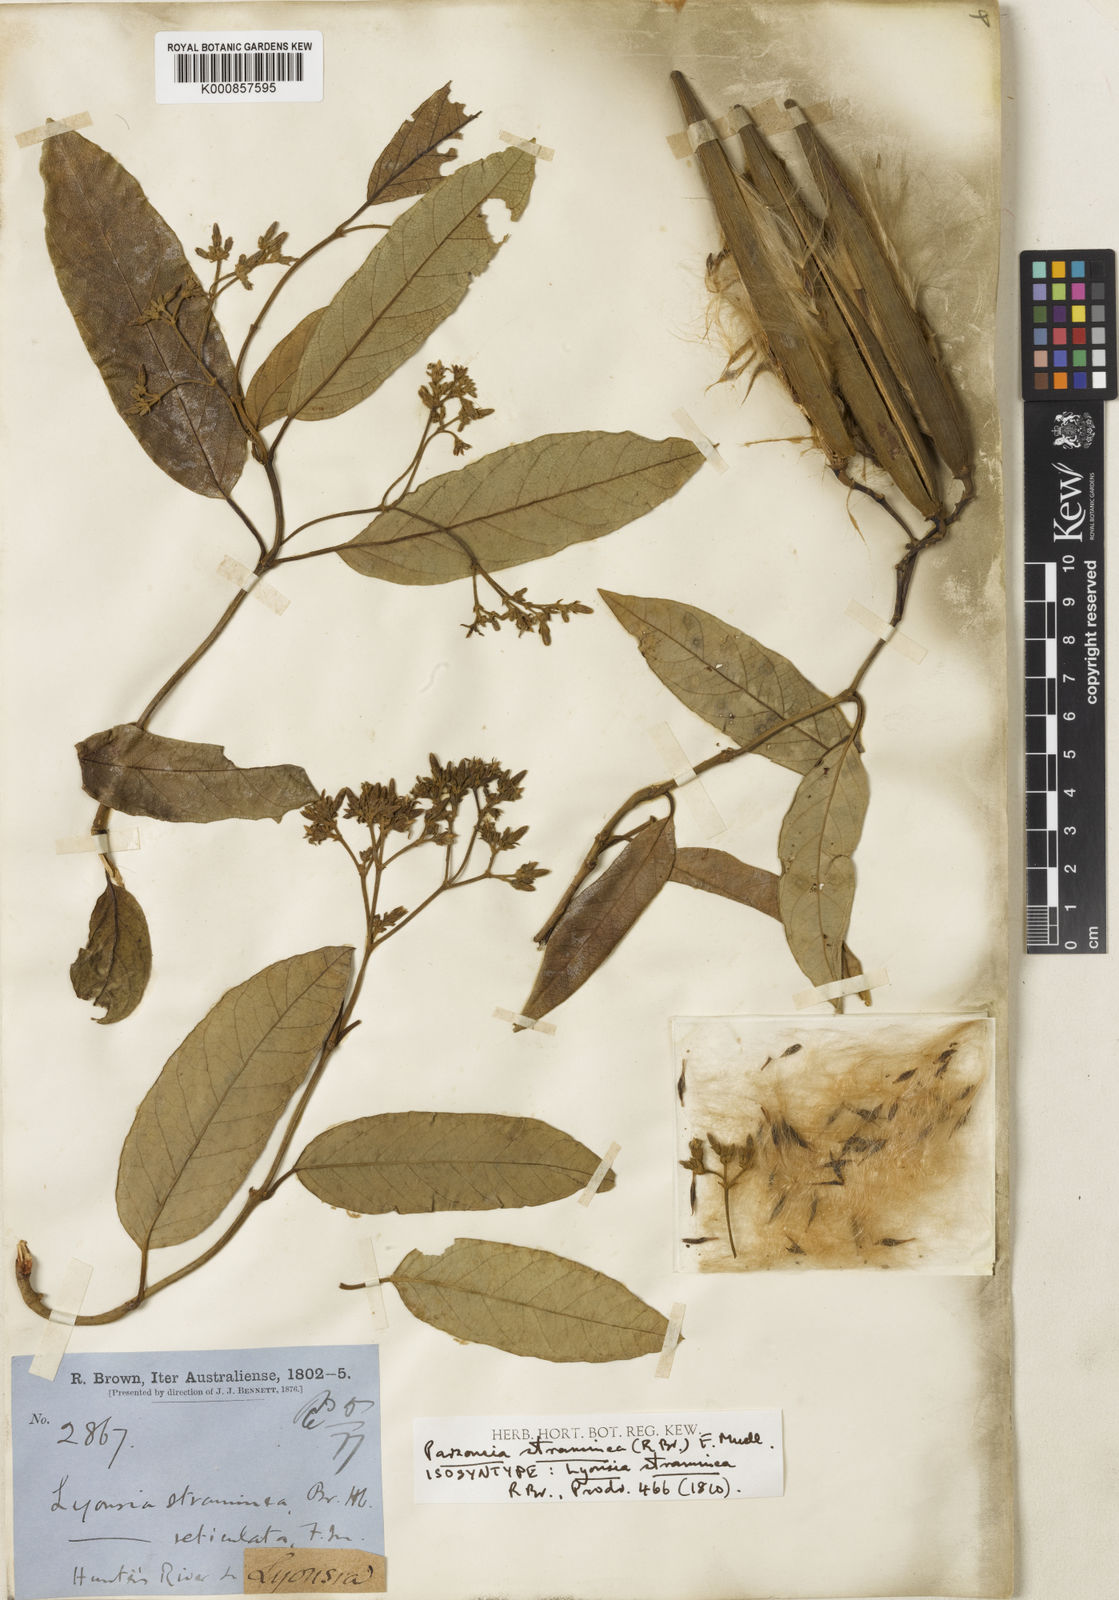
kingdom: Plantae
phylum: Tracheophyta
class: Magnoliopsida
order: Gentianales
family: Apocynaceae
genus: Parsonsia
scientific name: Parsonsia straminea
